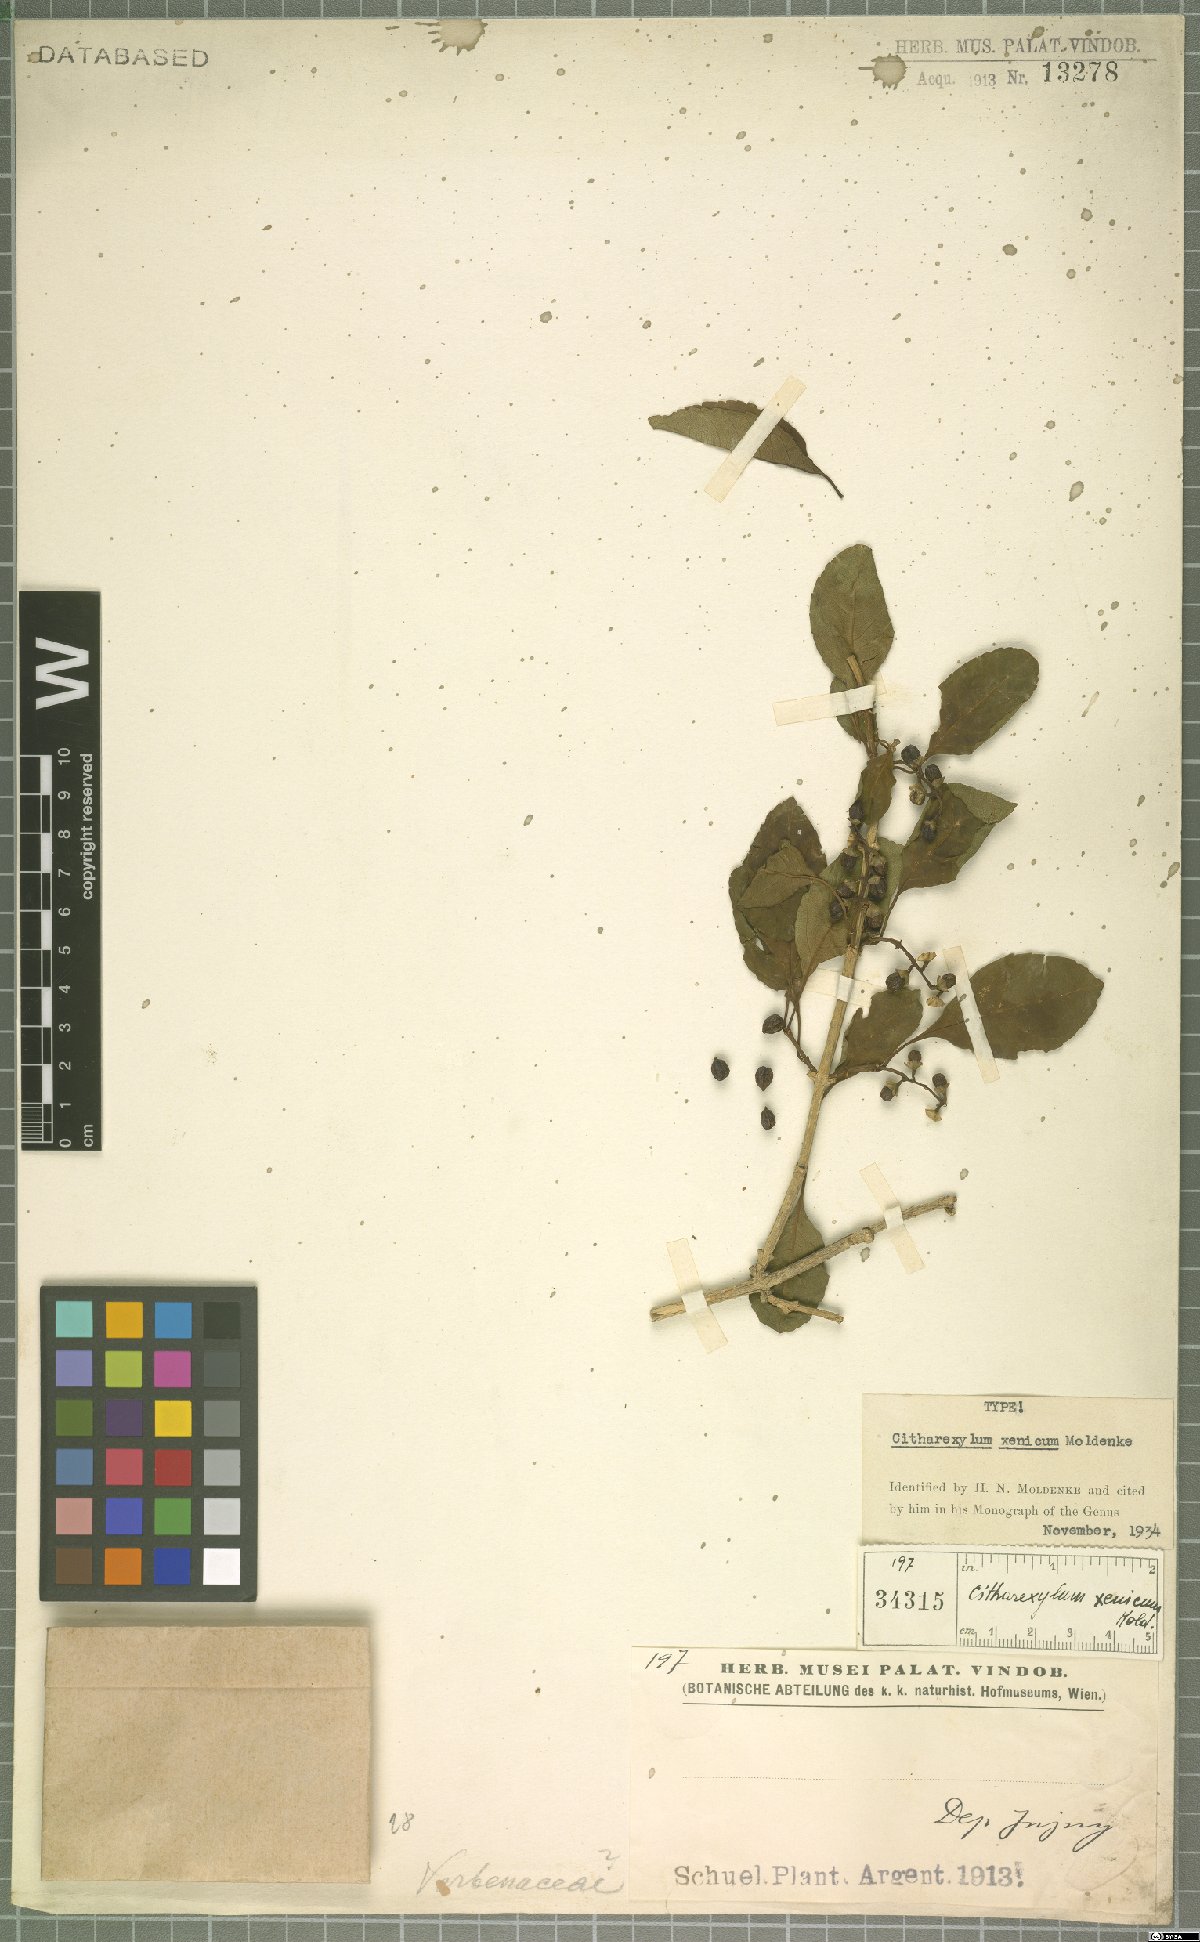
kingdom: Plantae
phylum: Tracheophyta
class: Magnoliopsida
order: Lamiales
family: Verbenaceae
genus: Citharexylum
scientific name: Citharexylum
